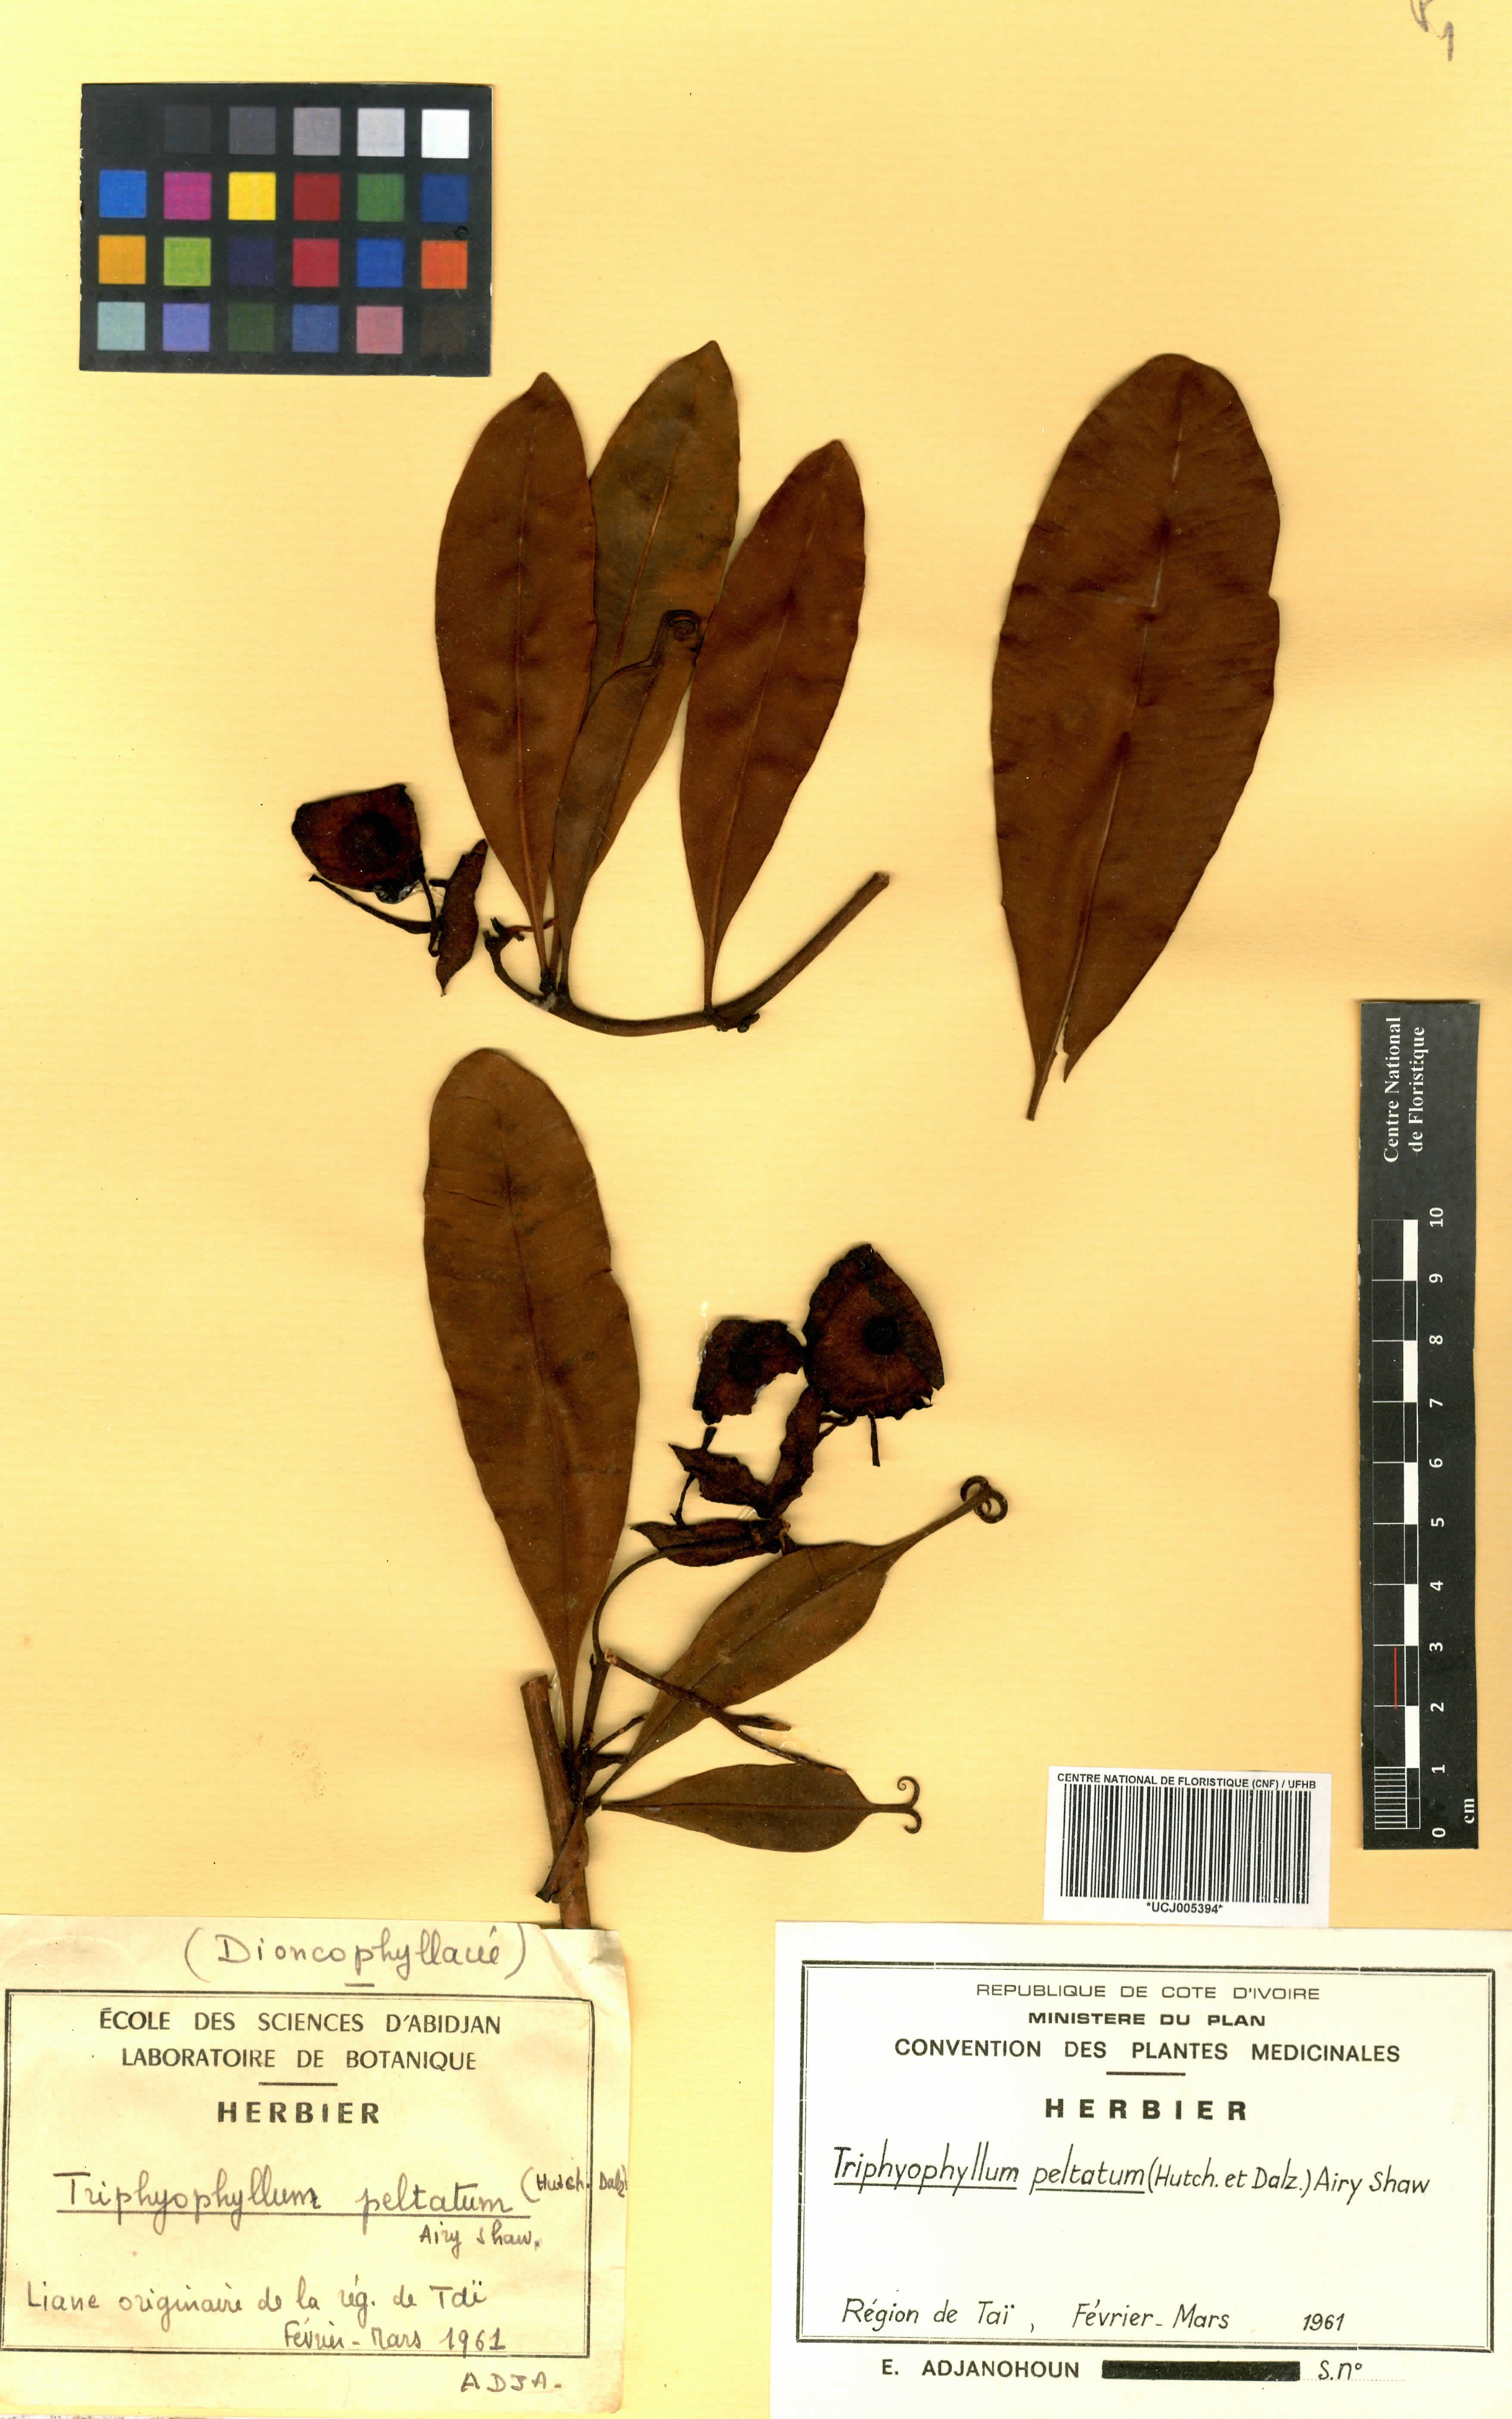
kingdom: Plantae
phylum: Tracheophyta
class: Magnoliopsida
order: Caryophyllales
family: Dioncophyllaceae
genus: Triphyophyllum
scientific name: Triphyophyllum peltatum
